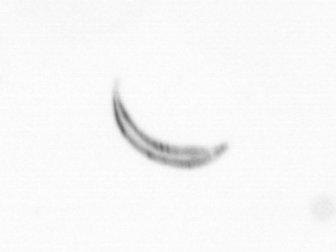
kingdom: Chromista
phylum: Ochrophyta
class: Bacillariophyceae
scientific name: Bacillariophyceae
